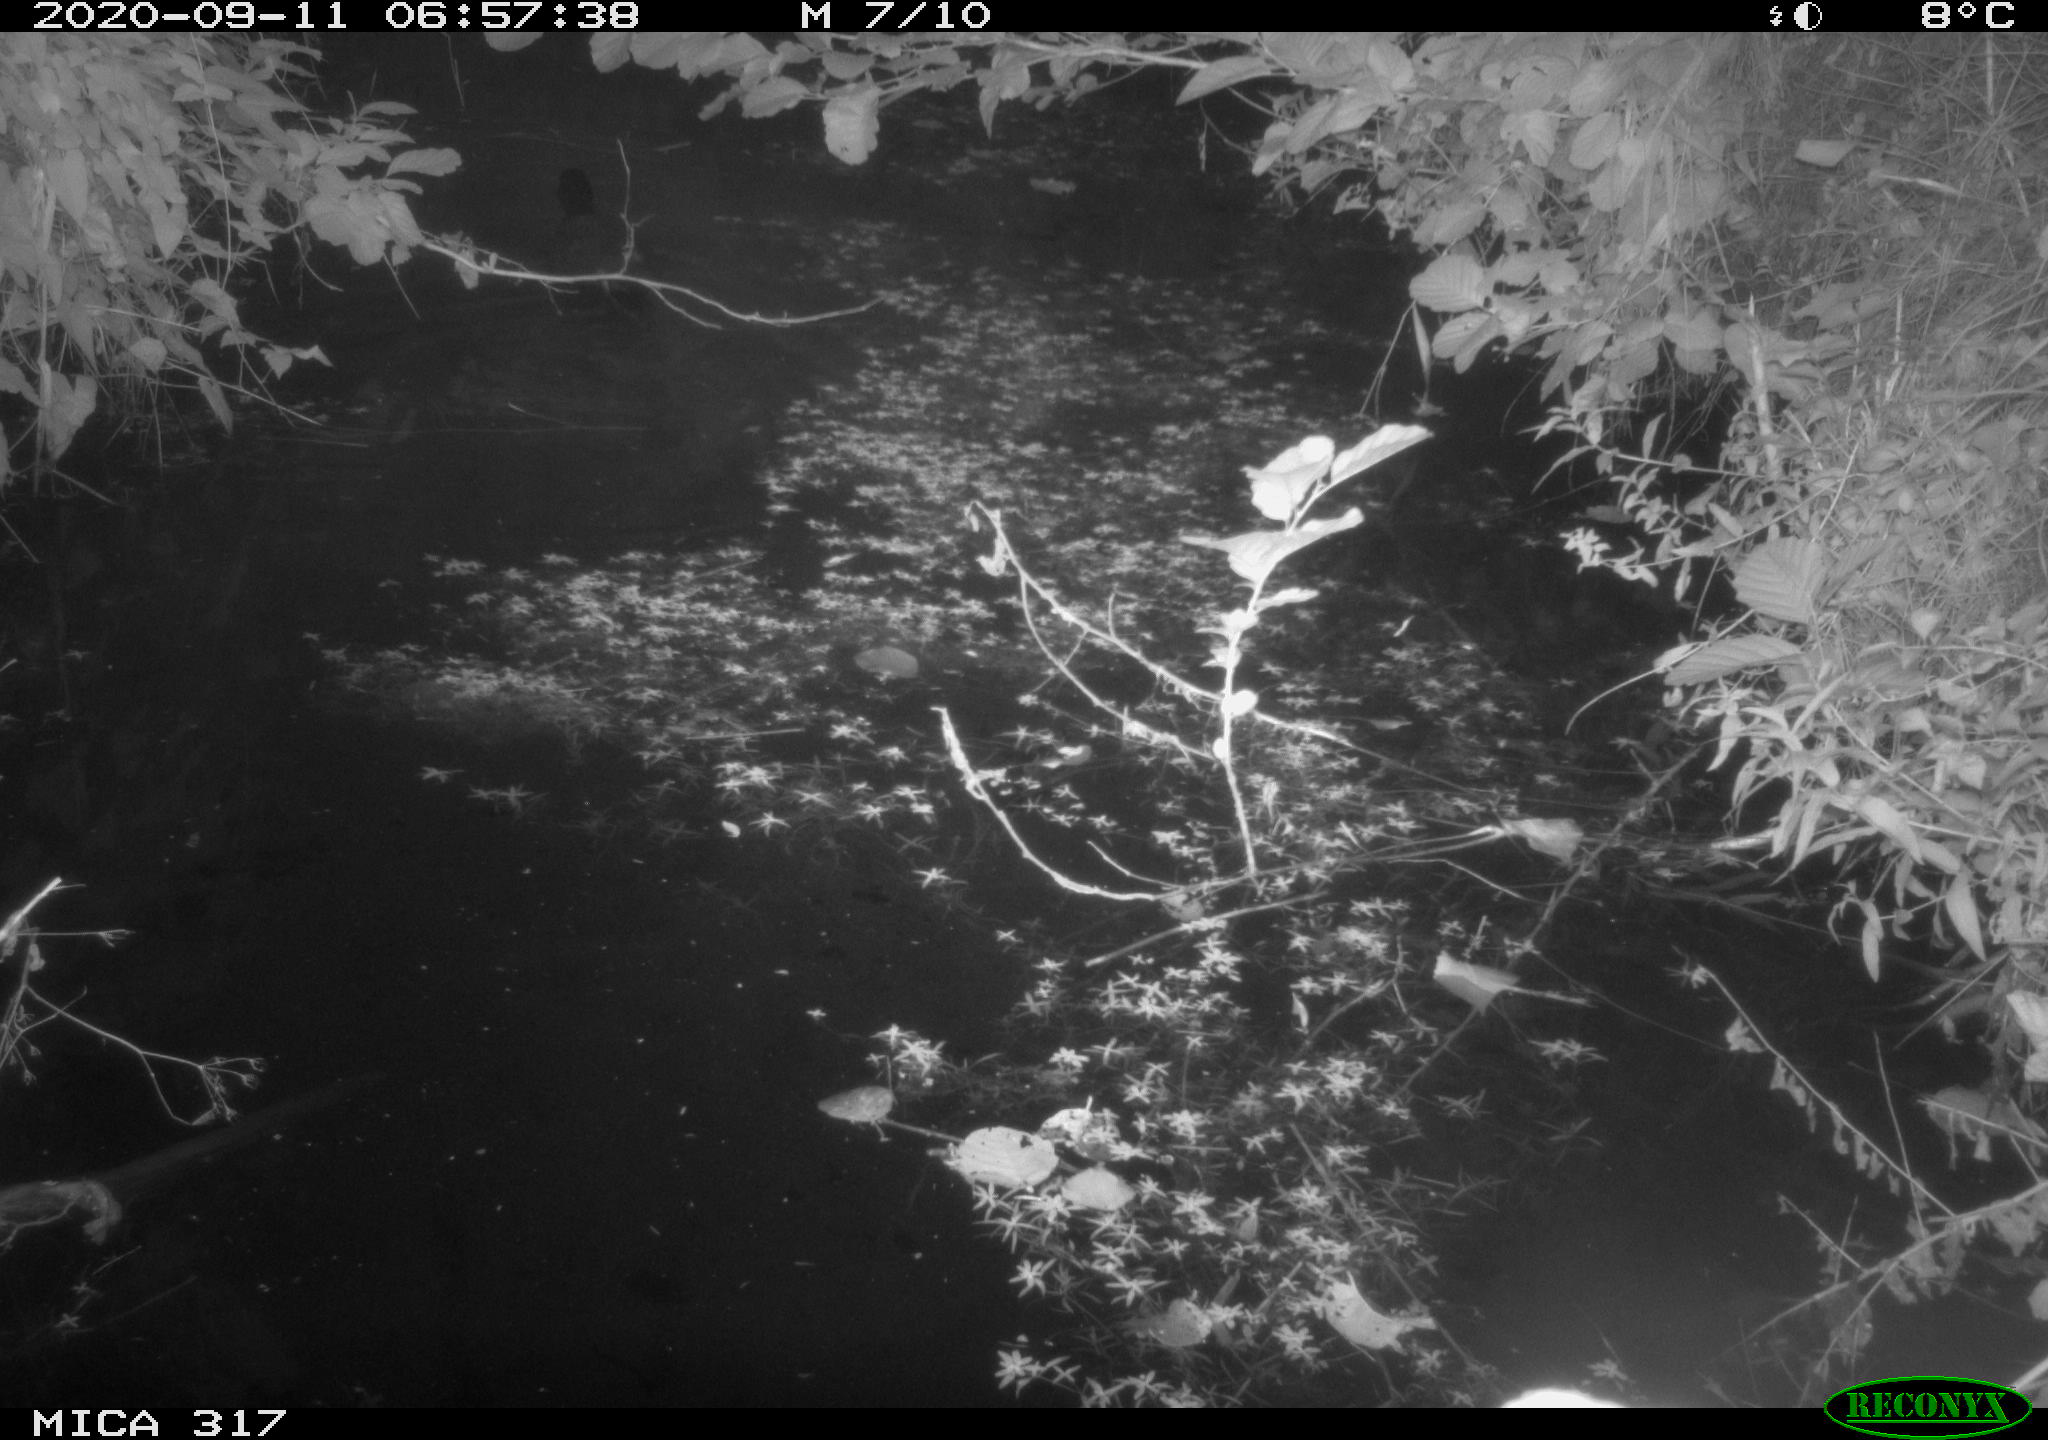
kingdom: Animalia
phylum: Chordata
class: Aves
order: Gruiformes
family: Rallidae
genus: Fulica
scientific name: Fulica atra
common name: Eurasian coot
